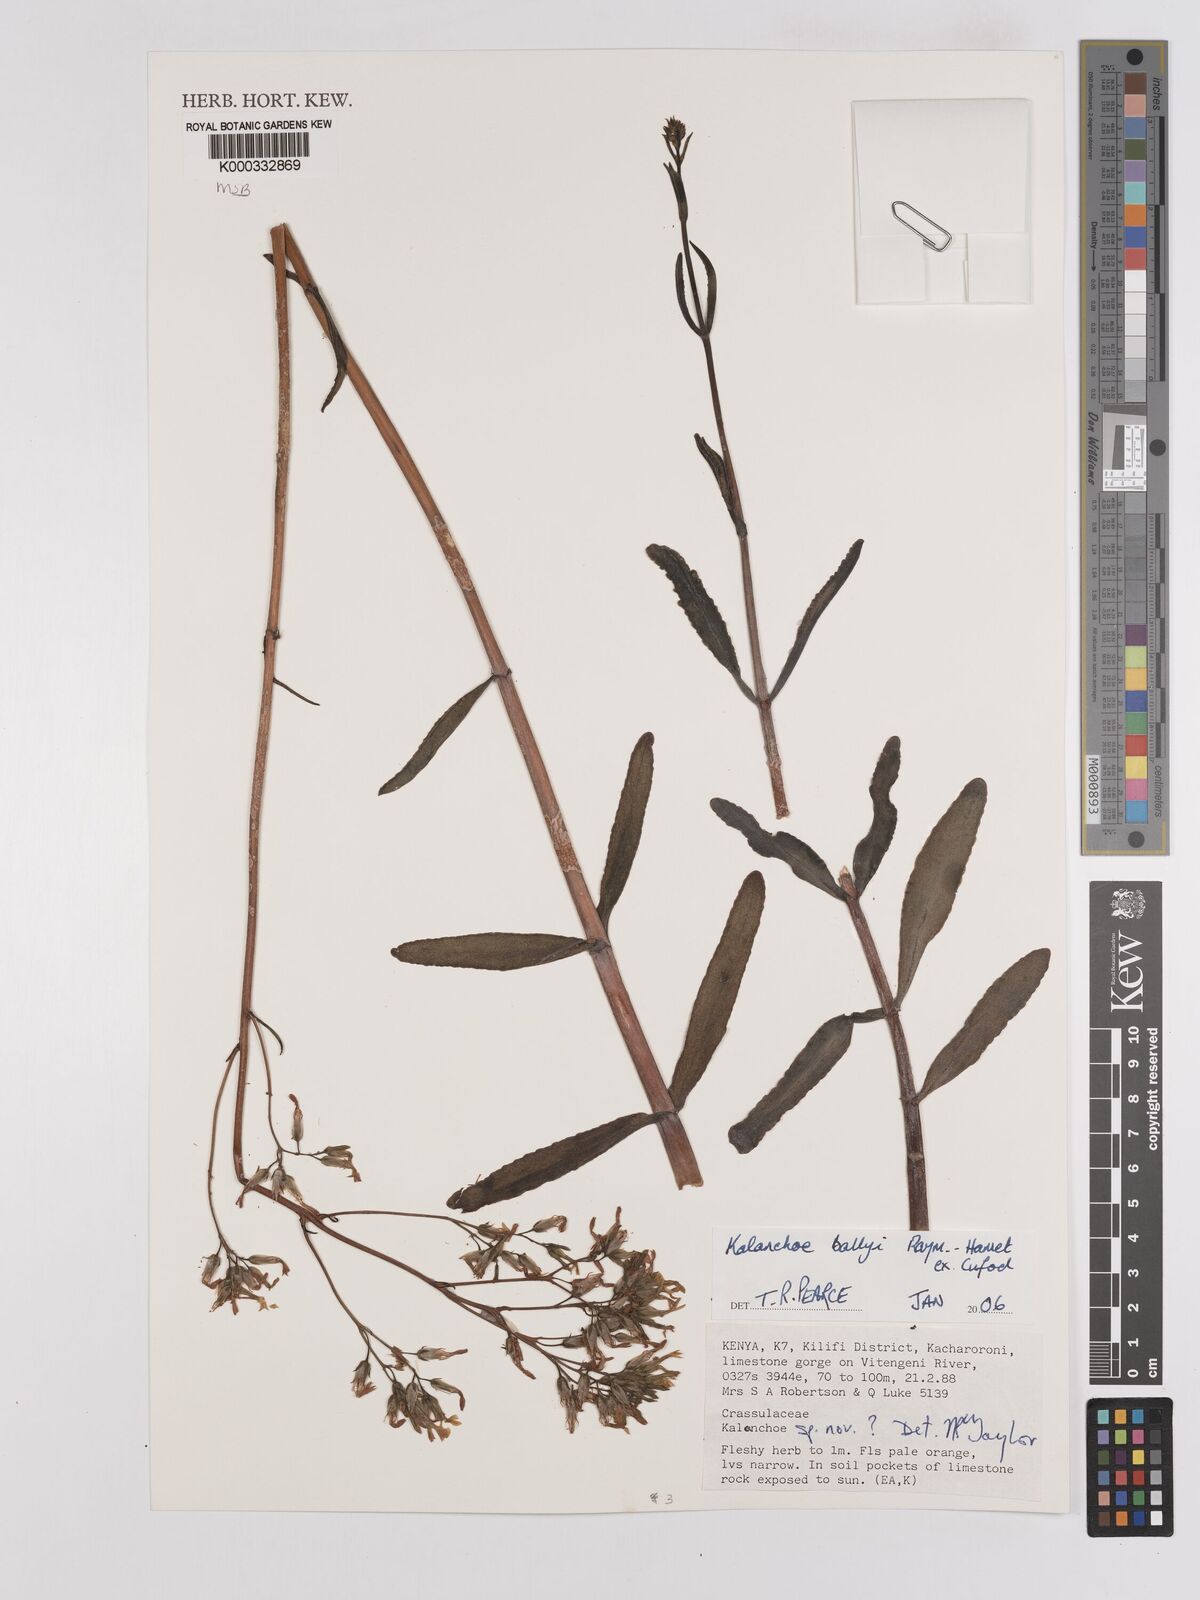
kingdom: Plantae
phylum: Tracheophyta
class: Magnoliopsida
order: Saxifragales
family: Crassulaceae
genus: Kalanchoe
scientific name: Kalanchoe ballyi
